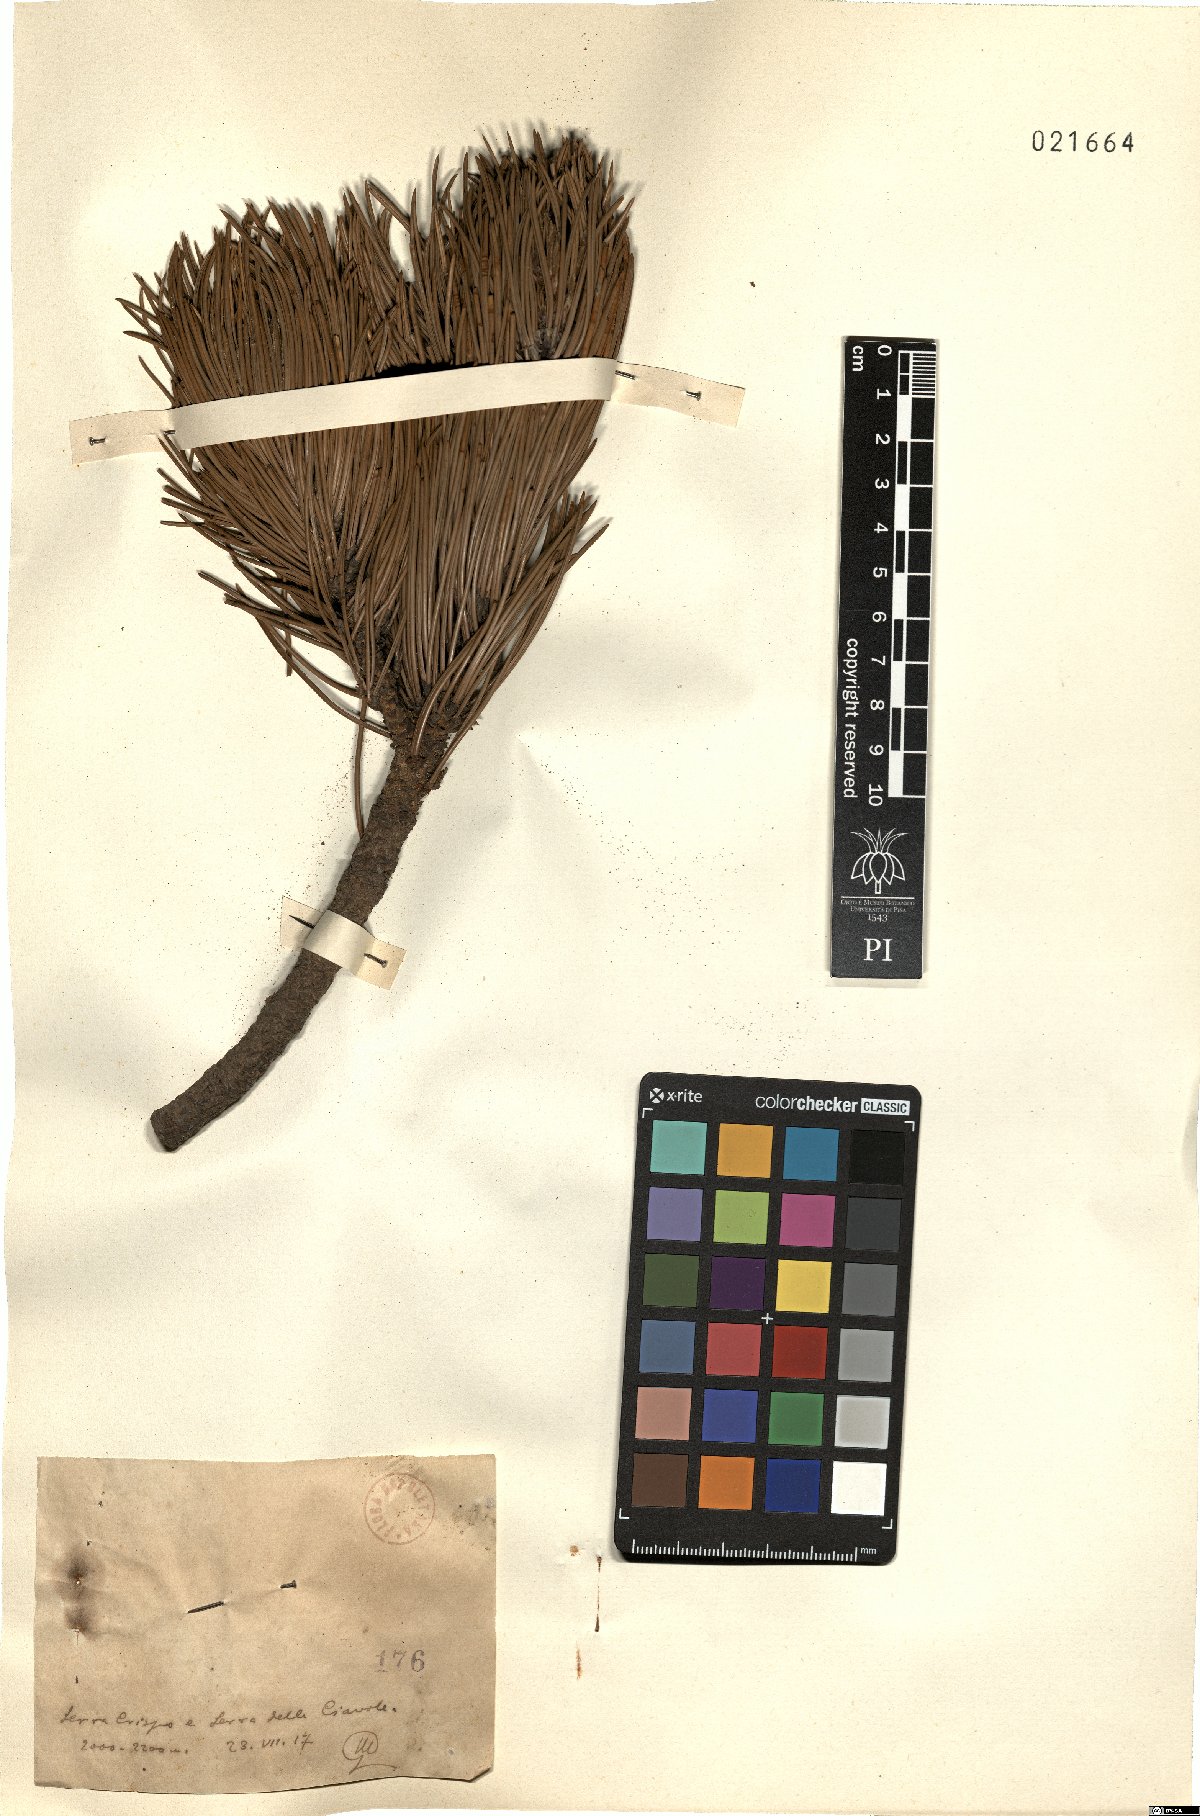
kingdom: Plantae
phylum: Tracheophyta
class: Pinopsida
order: Pinales
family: Pinaceae
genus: Pinus
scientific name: Pinus
